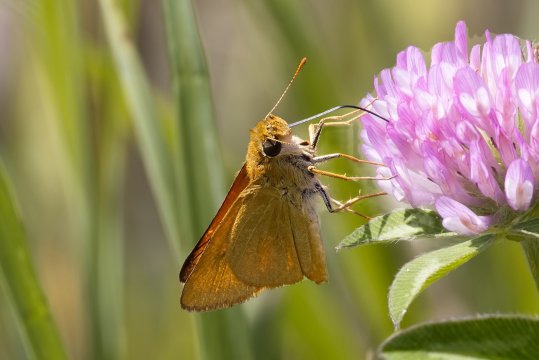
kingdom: Animalia
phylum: Arthropoda
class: Insecta
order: Lepidoptera
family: Hesperiidae
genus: Atrytone
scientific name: Atrytone delaware
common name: Delaware Skipper
